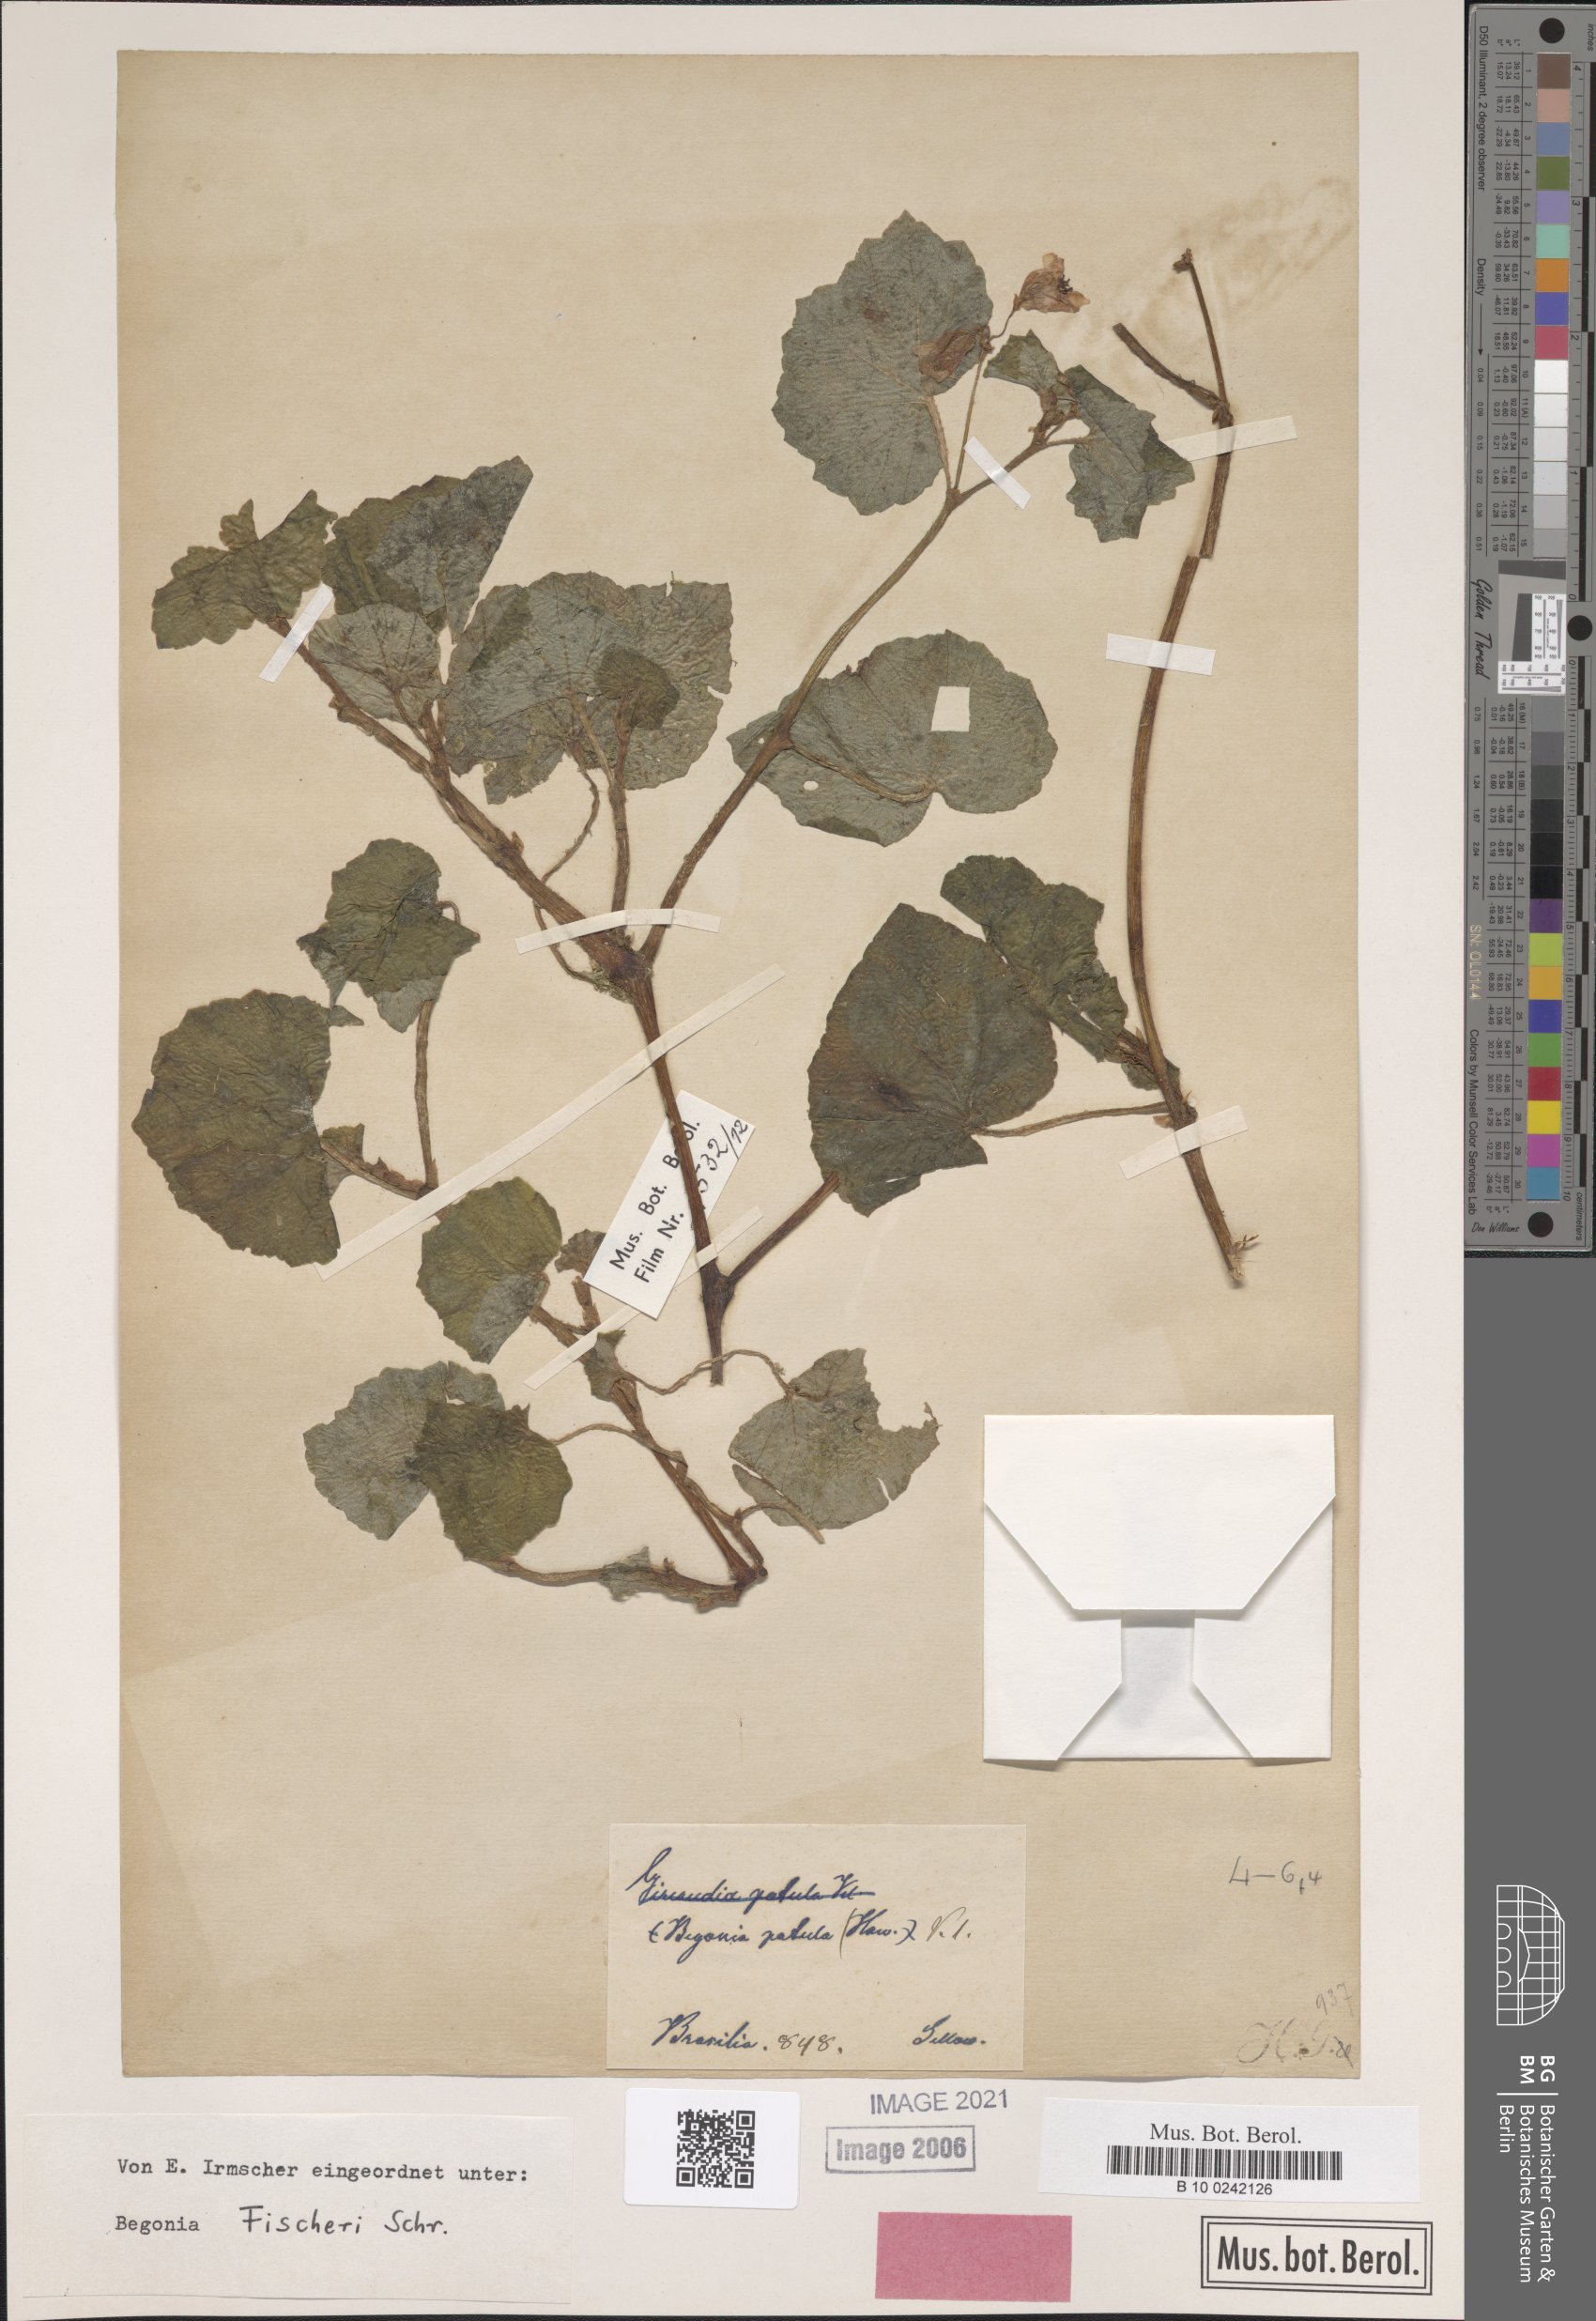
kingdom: Plantae
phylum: Tracheophyta
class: Magnoliopsida
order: Cucurbitales
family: Begoniaceae
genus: Begonia
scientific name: Begonia fischeri
